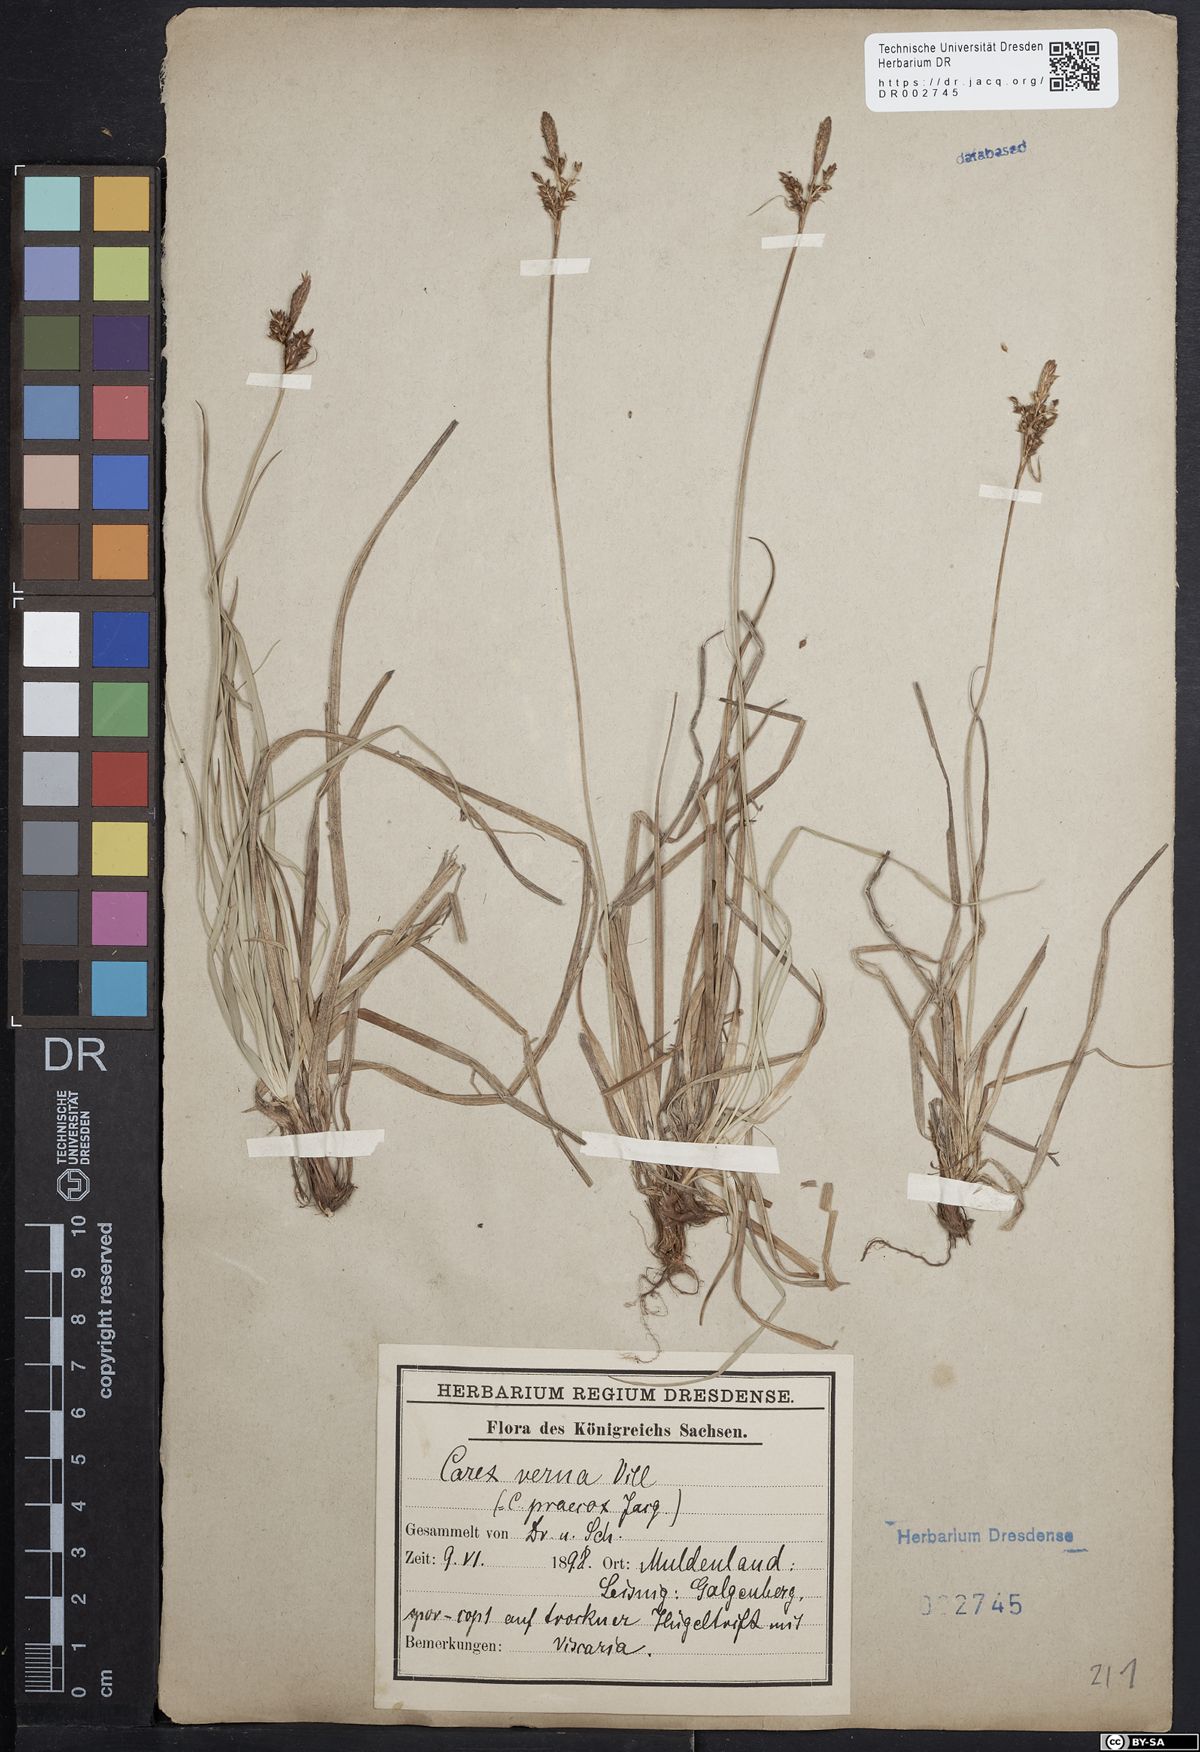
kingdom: Plantae
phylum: Tracheophyta
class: Liliopsida
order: Poales
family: Cyperaceae
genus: Carex
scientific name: Carex caryophyllea
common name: Spring sedge
